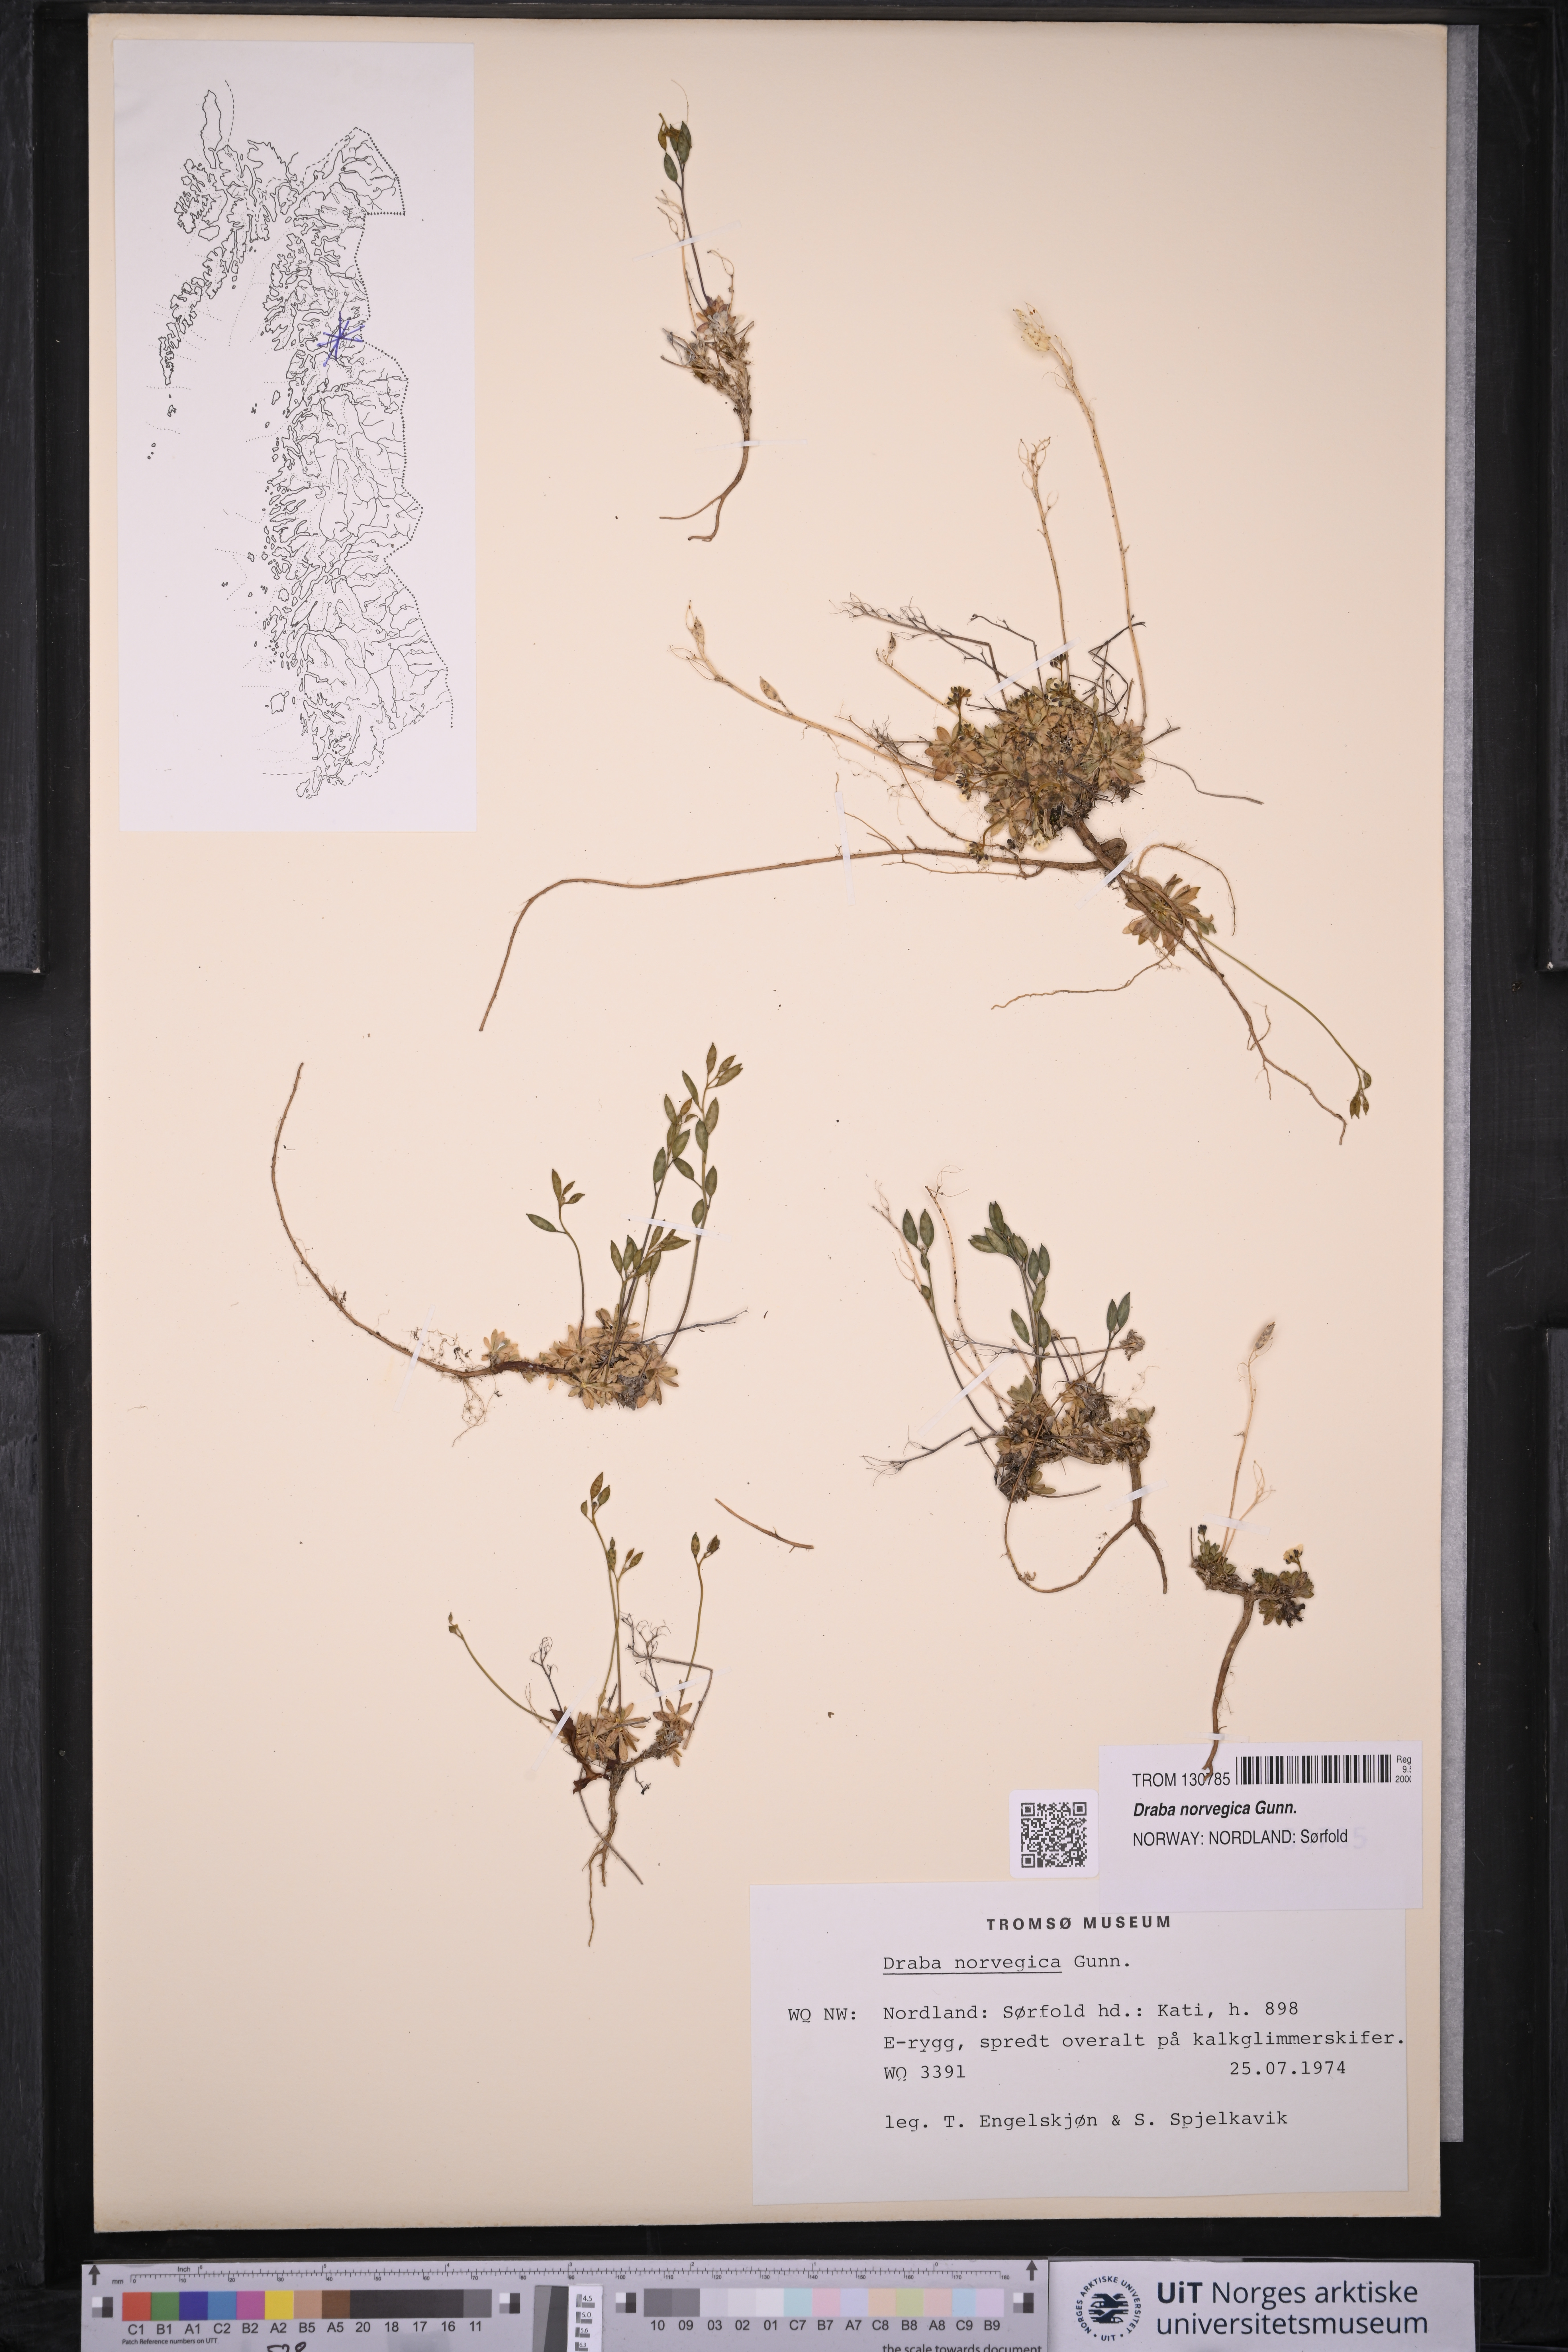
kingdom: Plantae
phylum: Tracheophyta
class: Magnoliopsida
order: Brassicales
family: Brassicaceae
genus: Draba
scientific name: Draba norvegica
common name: Rock whitlowgrass
